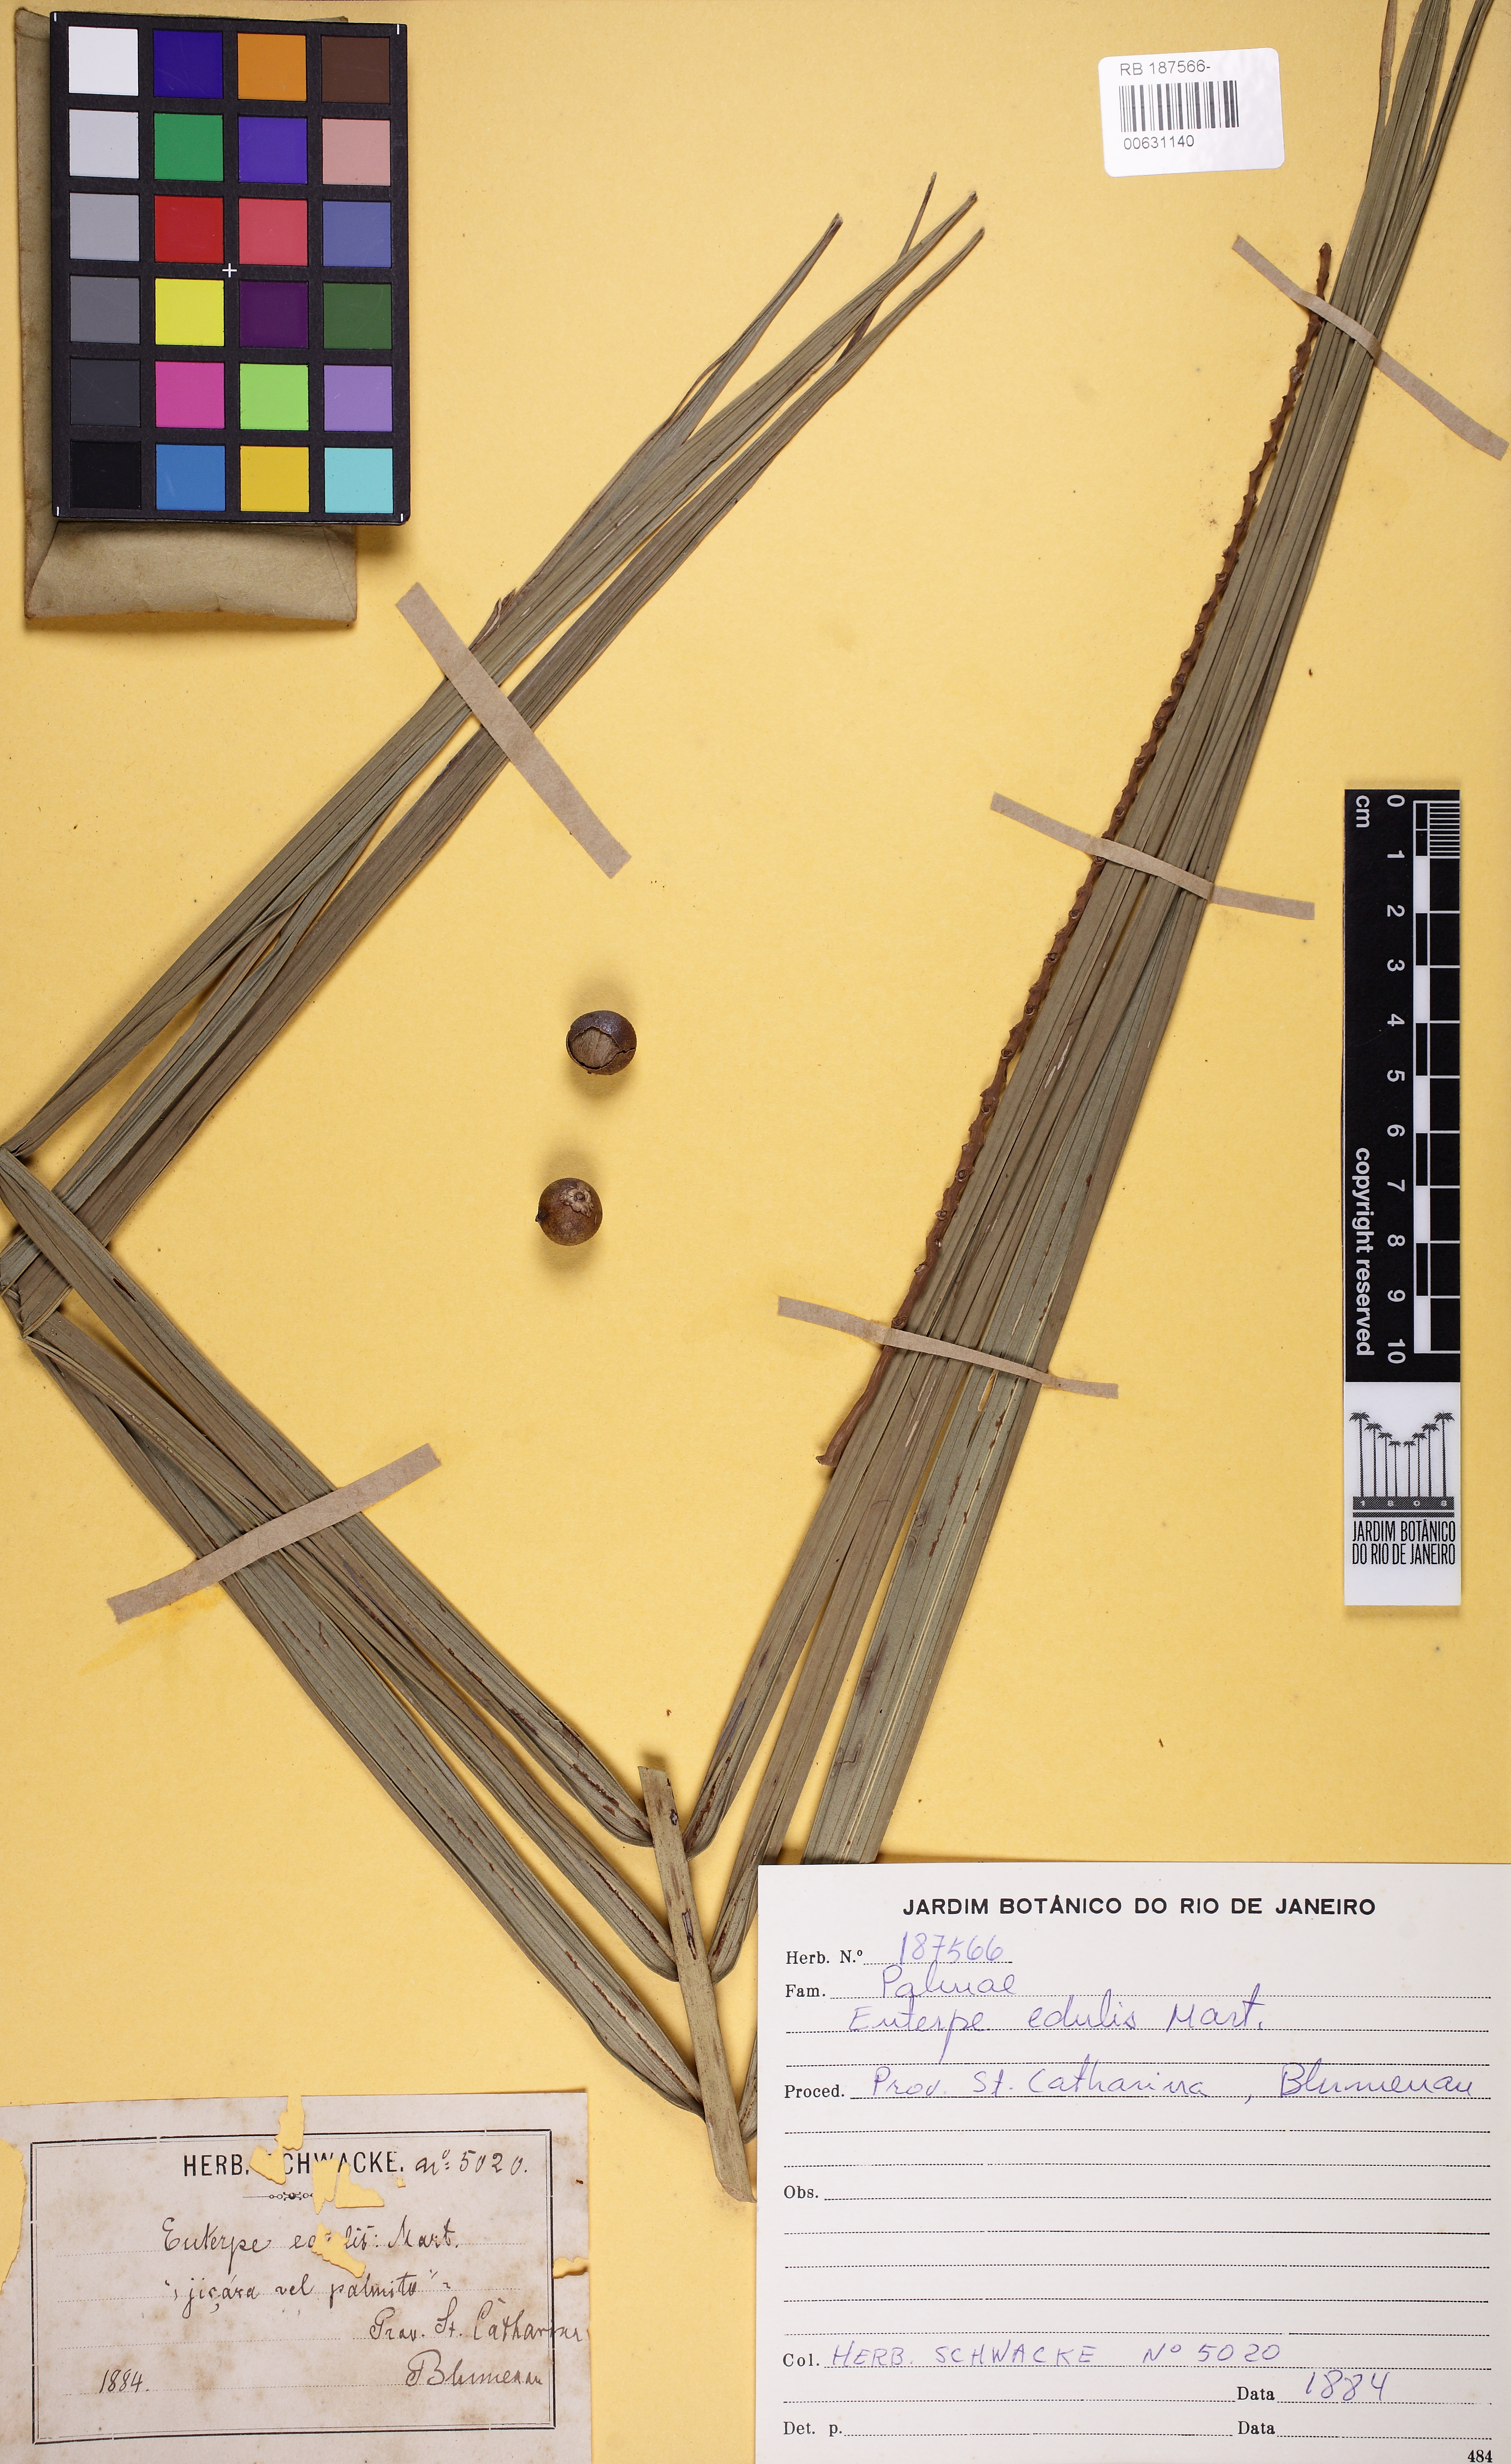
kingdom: Plantae
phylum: Tracheophyta
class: Liliopsida
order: Arecales
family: Arecaceae
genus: Euterpe
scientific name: Euterpe edulis
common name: Assai palm
